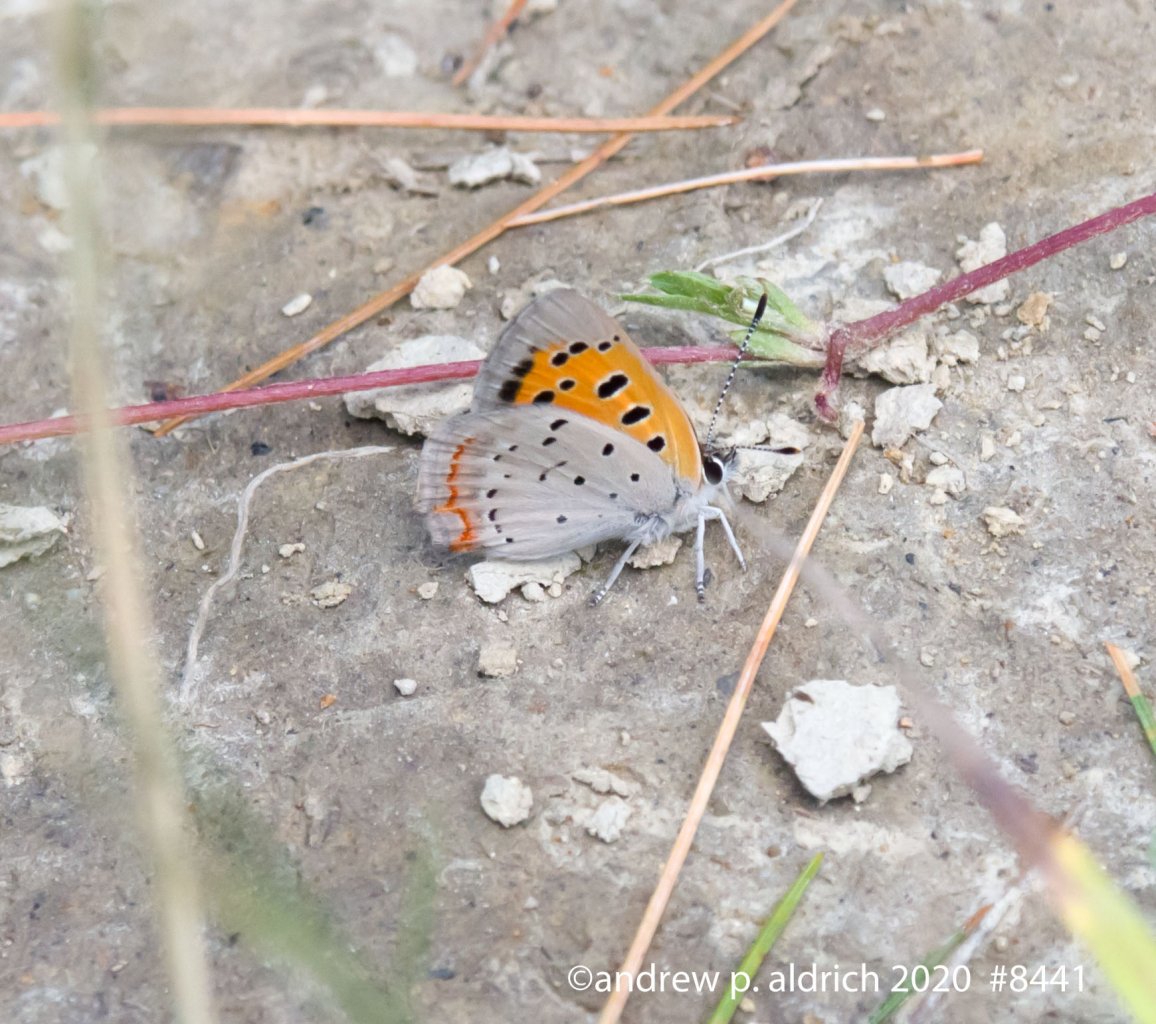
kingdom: Animalia
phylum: Arthropoda
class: Insecta
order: Lepidoptera
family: Lycaenidae
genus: Lycaena
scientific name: Lycaena phlaeas
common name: American Copper
